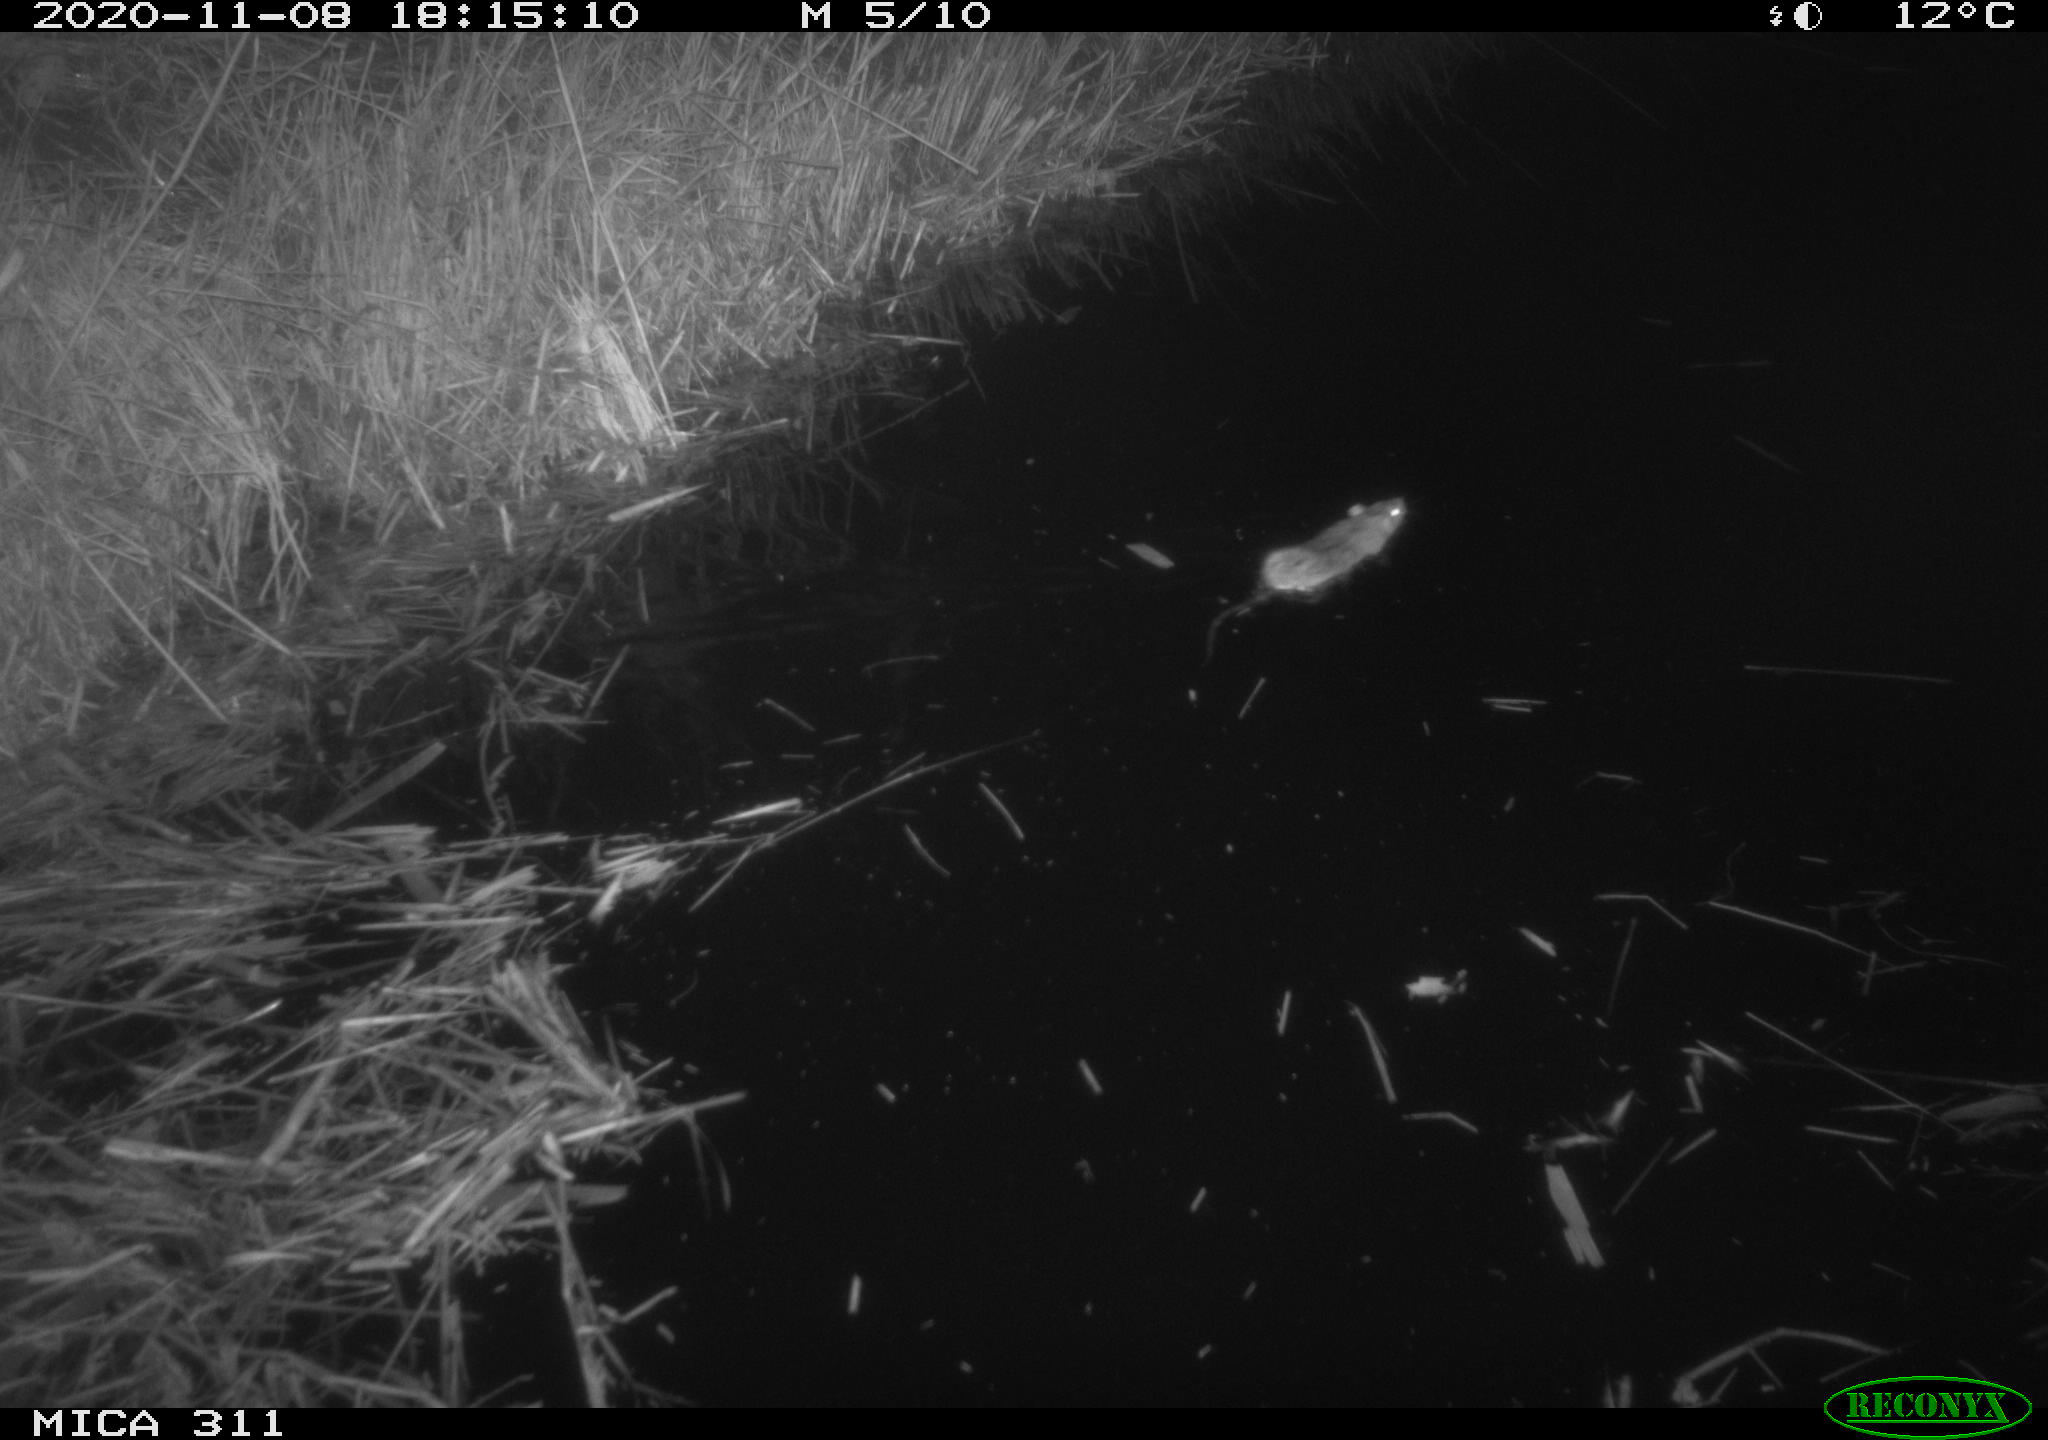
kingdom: Animalia
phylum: Chordata
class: Mammalia
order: Rodentia
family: Muridae
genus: Rattus
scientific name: Rattus norvegicus
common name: Brown rat
